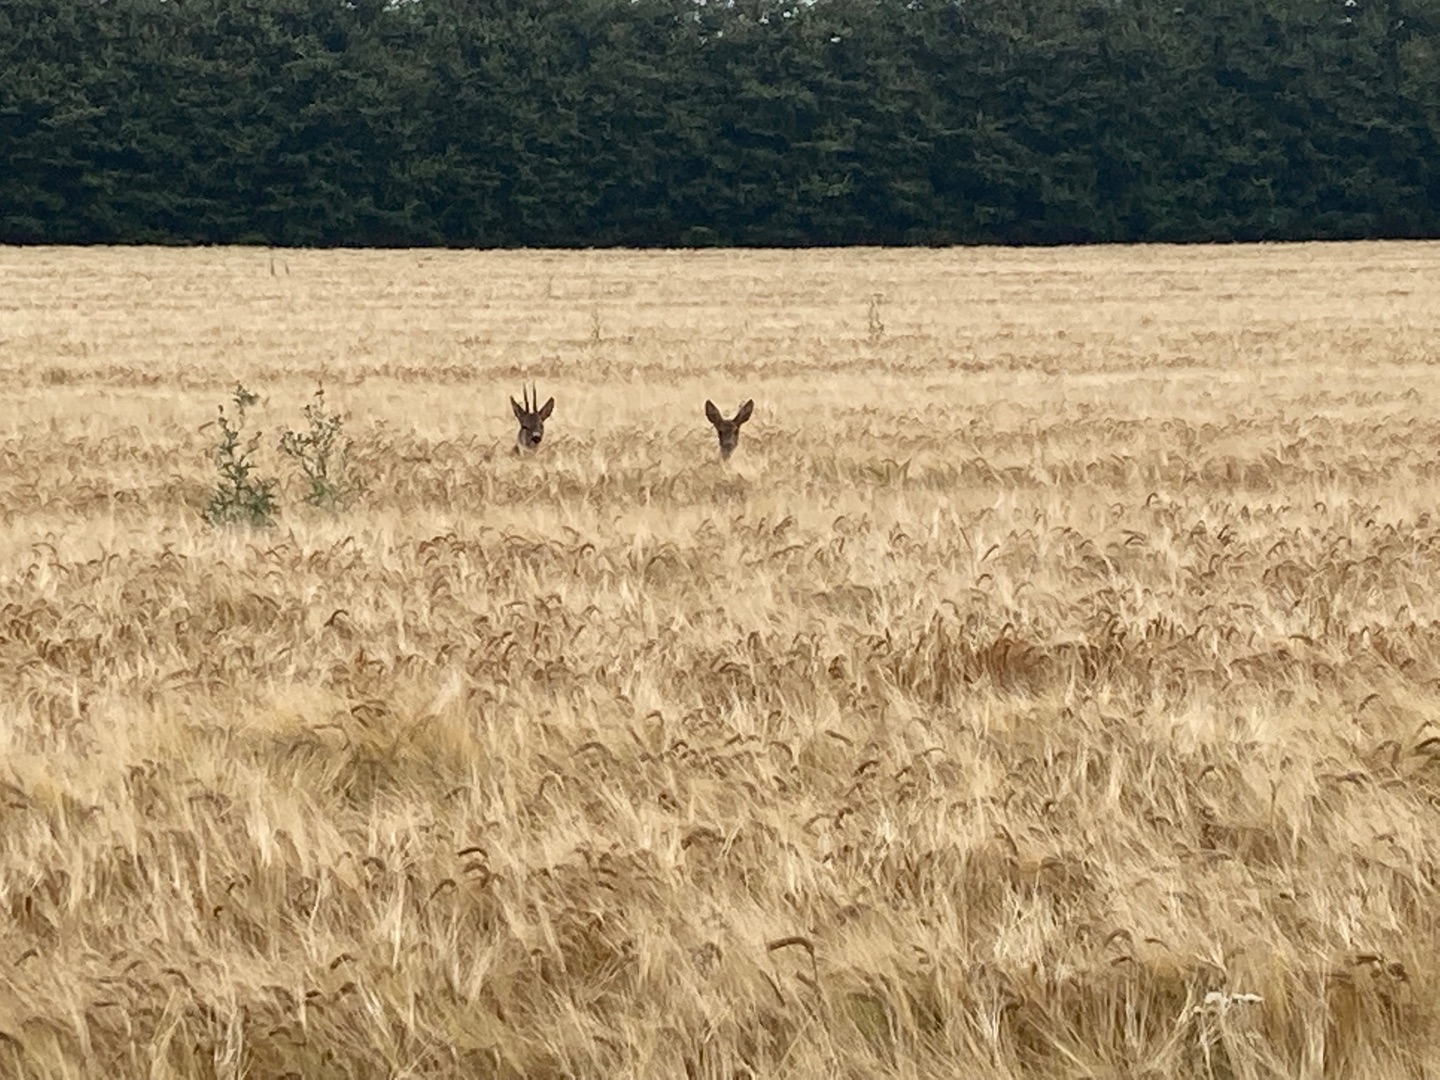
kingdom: Animalia
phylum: Chordata
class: Mammalia
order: Artiodactyla
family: Cervidae
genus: Capreolus
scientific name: Capreolus capreolus
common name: Rådyr
